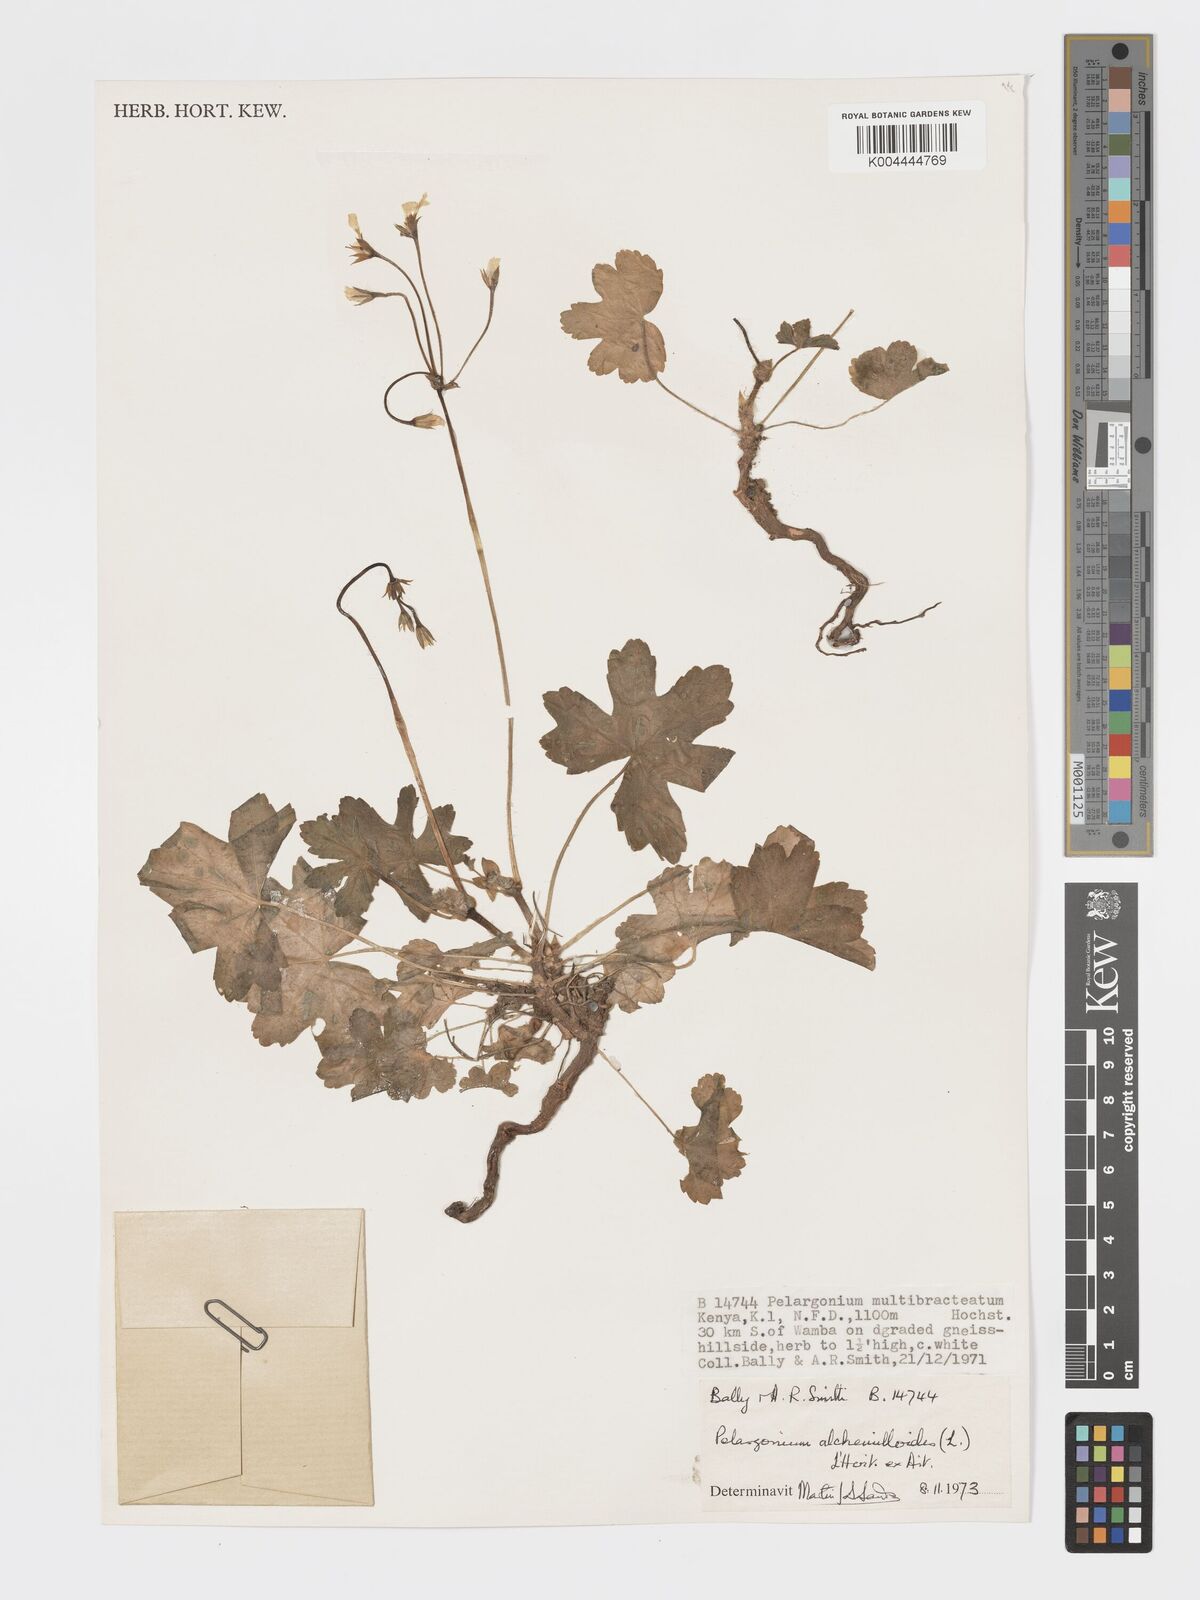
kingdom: Plantae
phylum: Tracheophyta
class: Magnoliopsida
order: Geraniales
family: Geraniaceae
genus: Pelargonium
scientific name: Pelargonium alchemilloides
